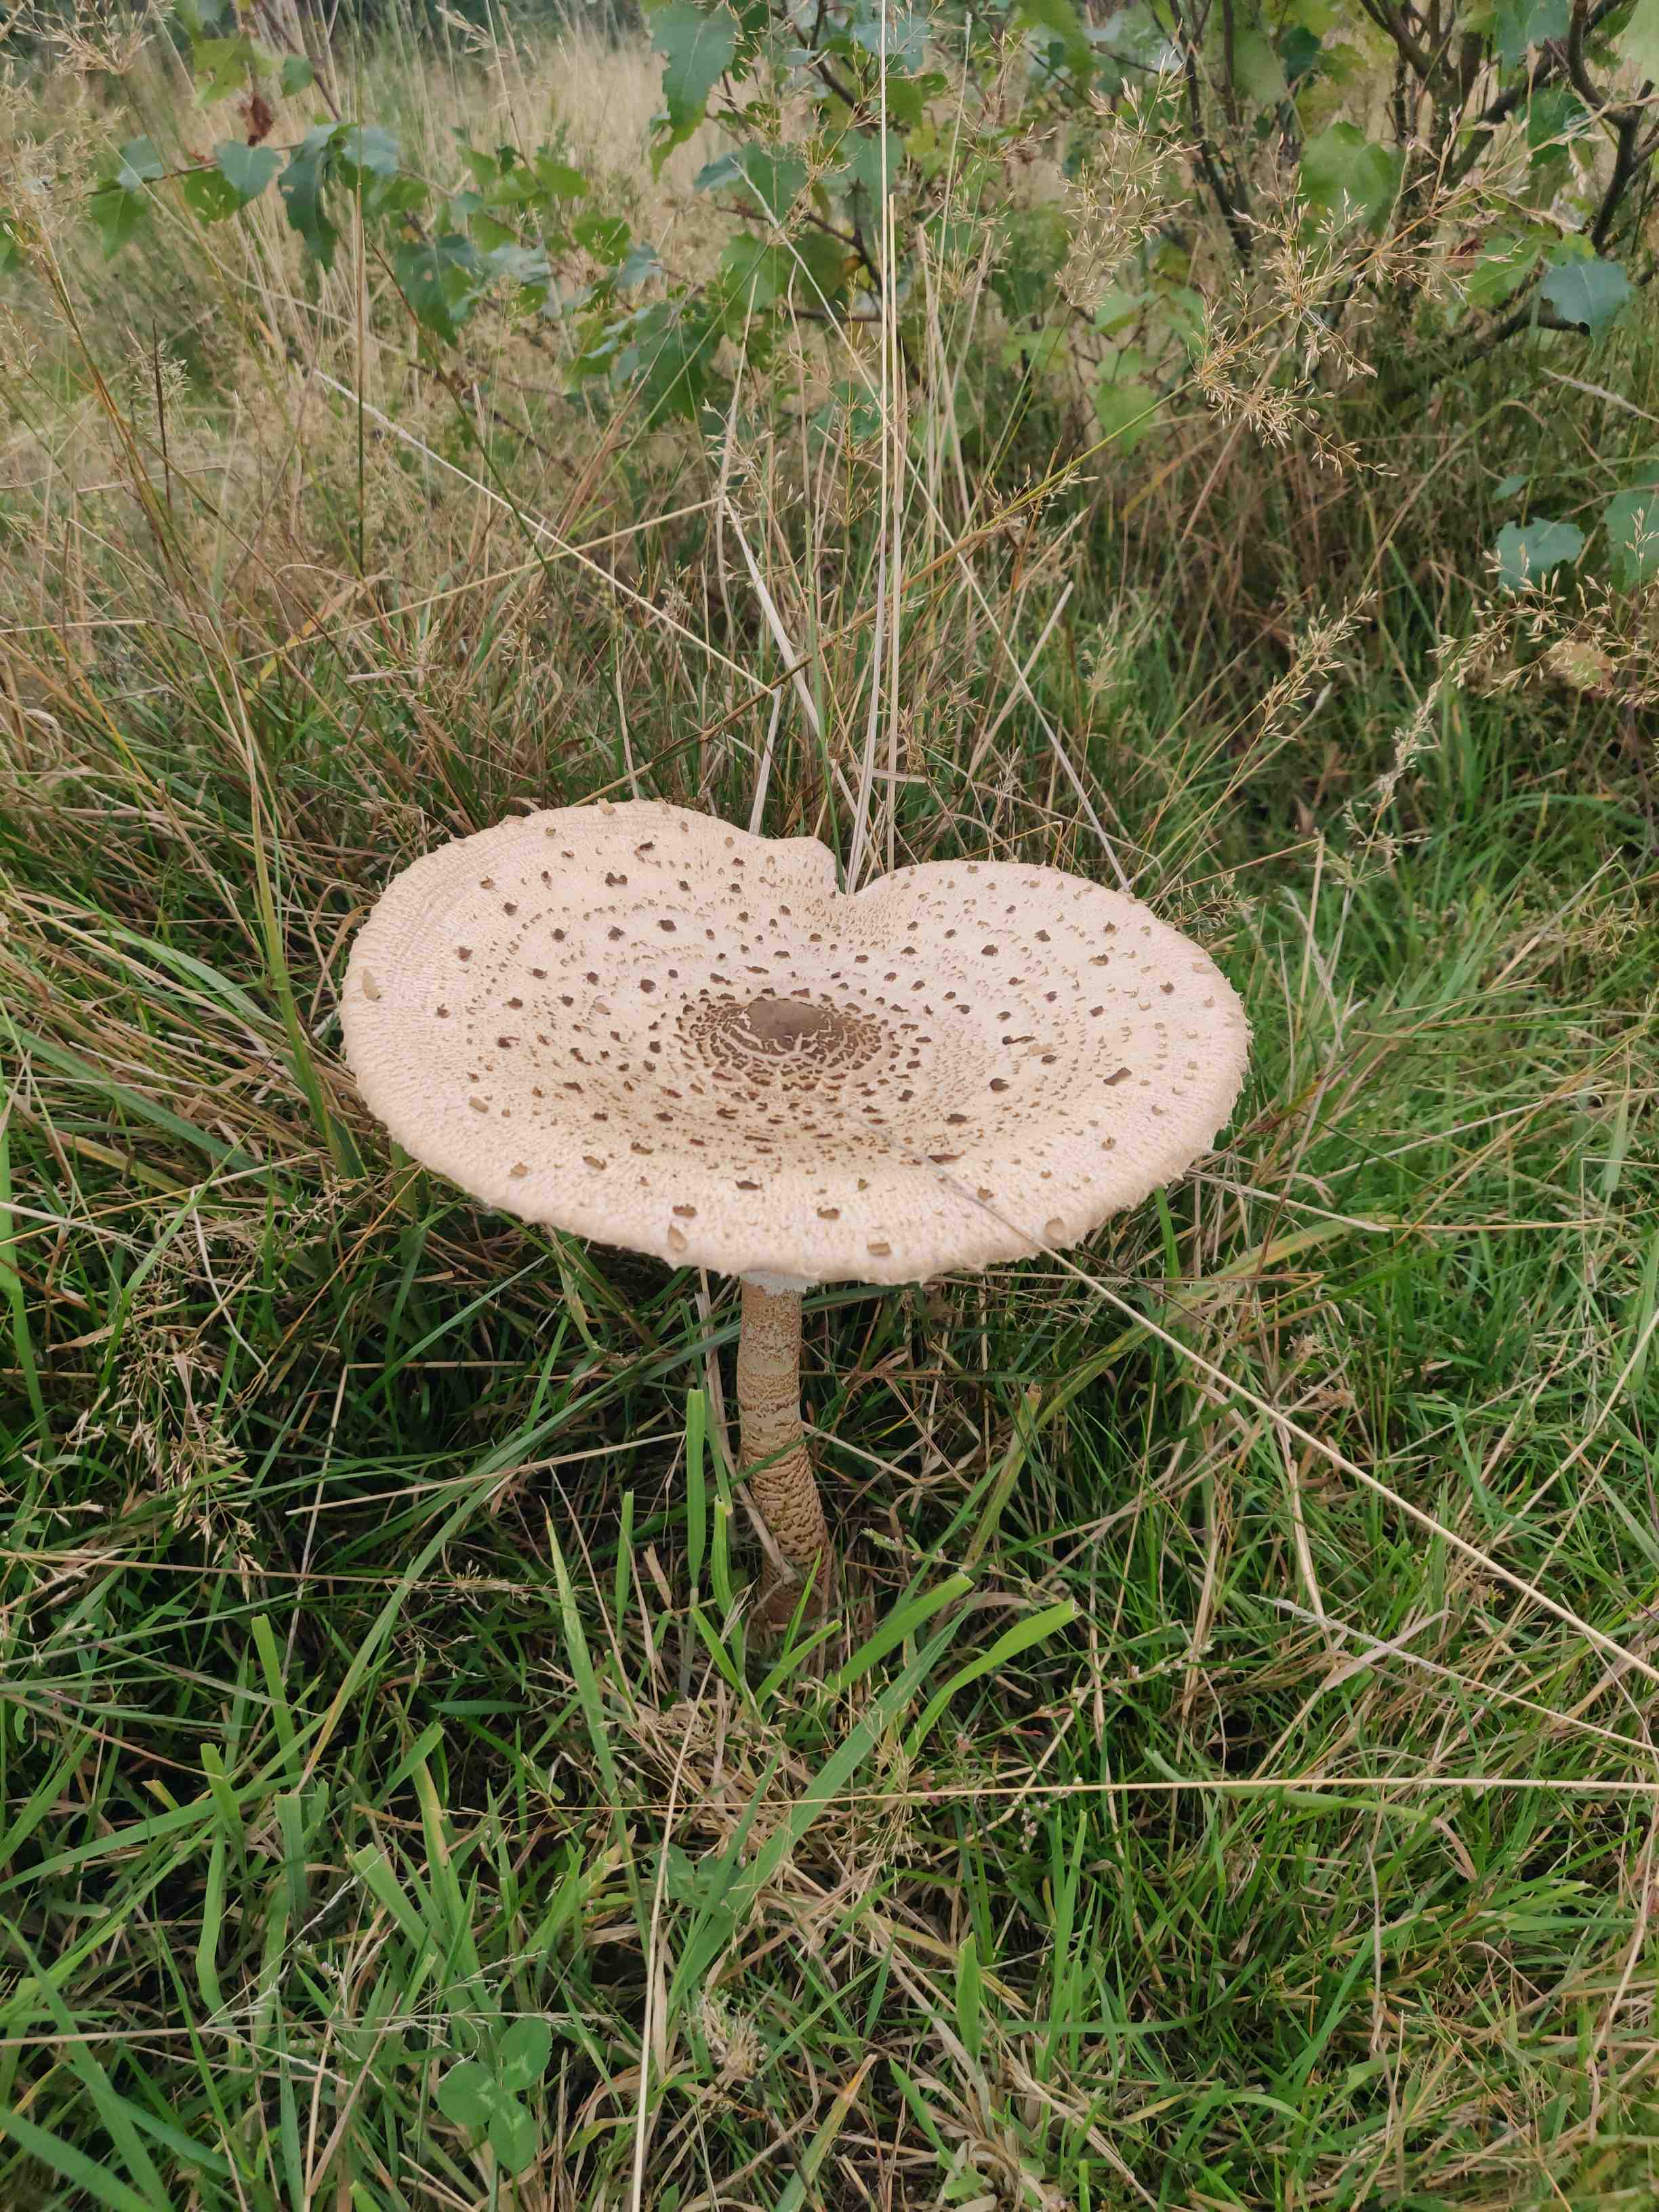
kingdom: Fungi
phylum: Basidiomycota
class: Agaricomycetes
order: Agaricales
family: Agaricaceae
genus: Macrolepiota
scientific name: Macrolepiota procera
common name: stor kæmpeparasolhat
